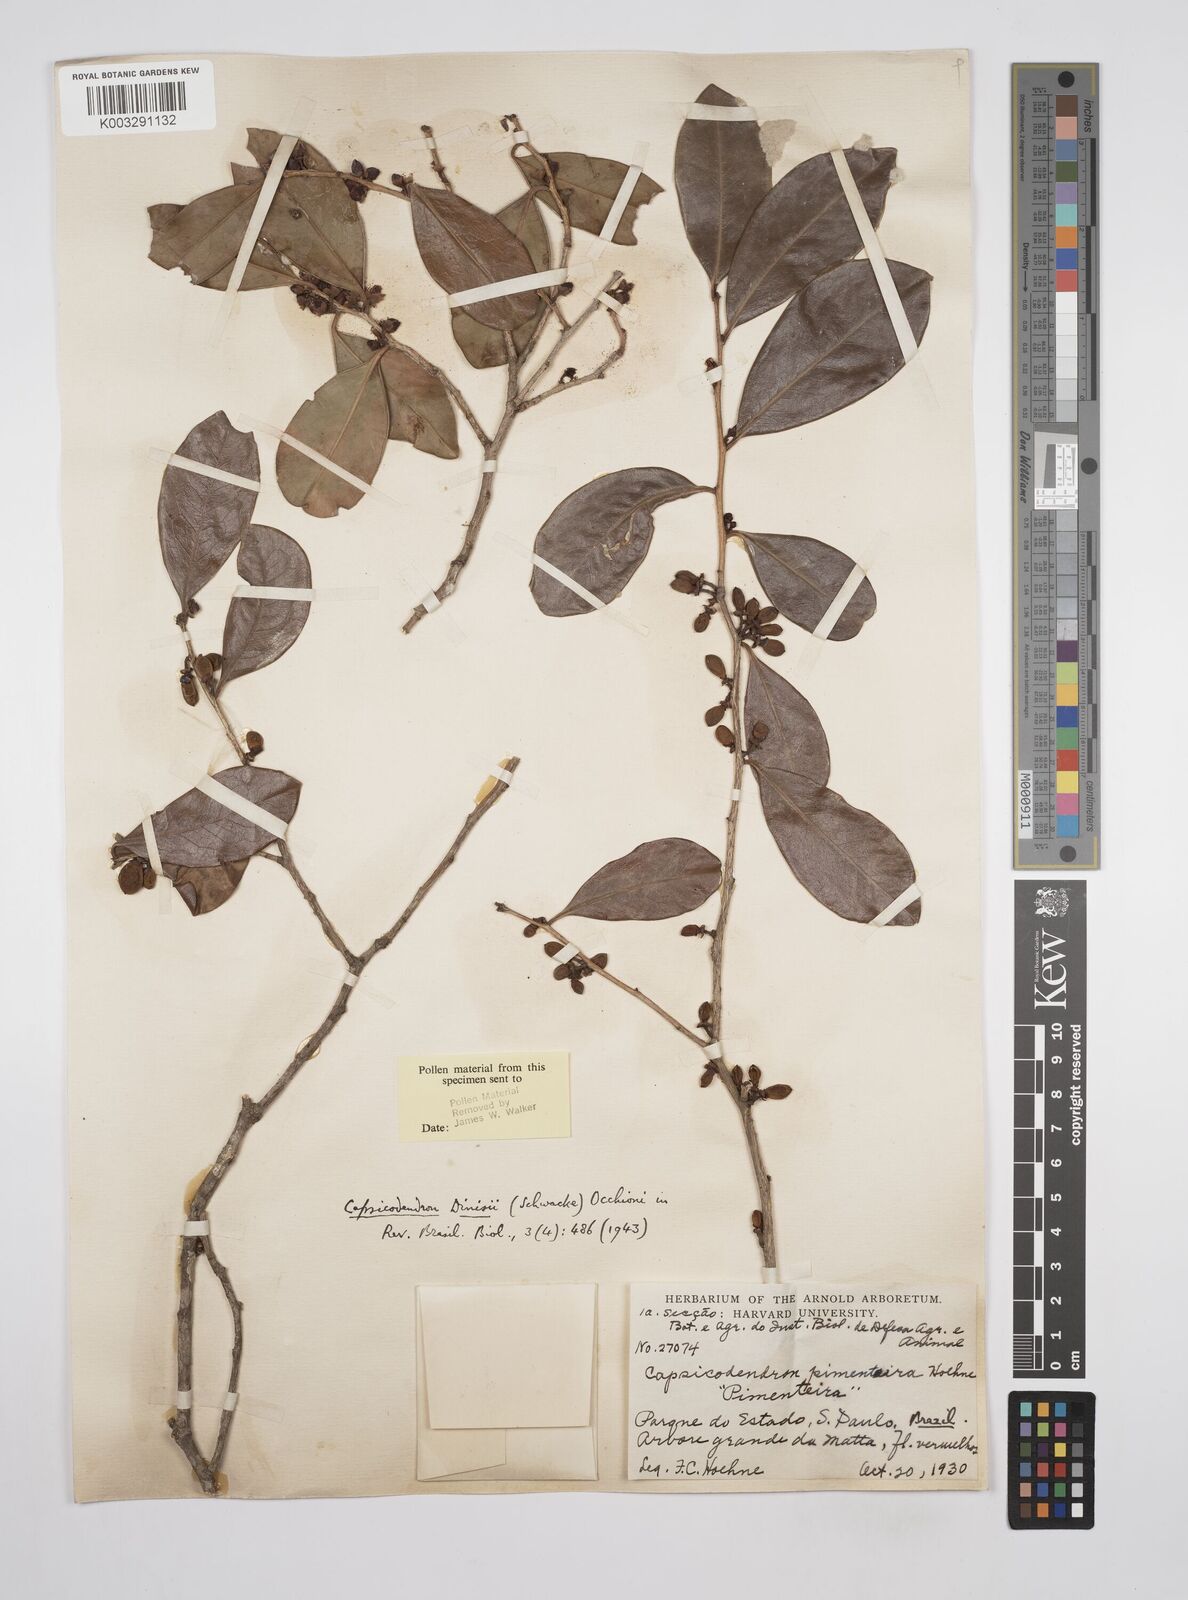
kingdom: Plantae
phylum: Tracheophyta
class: Magnoliopsida
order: Canellales
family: Canellaceae
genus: Cinnamodendron
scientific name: Cinnamodendron dinisii
